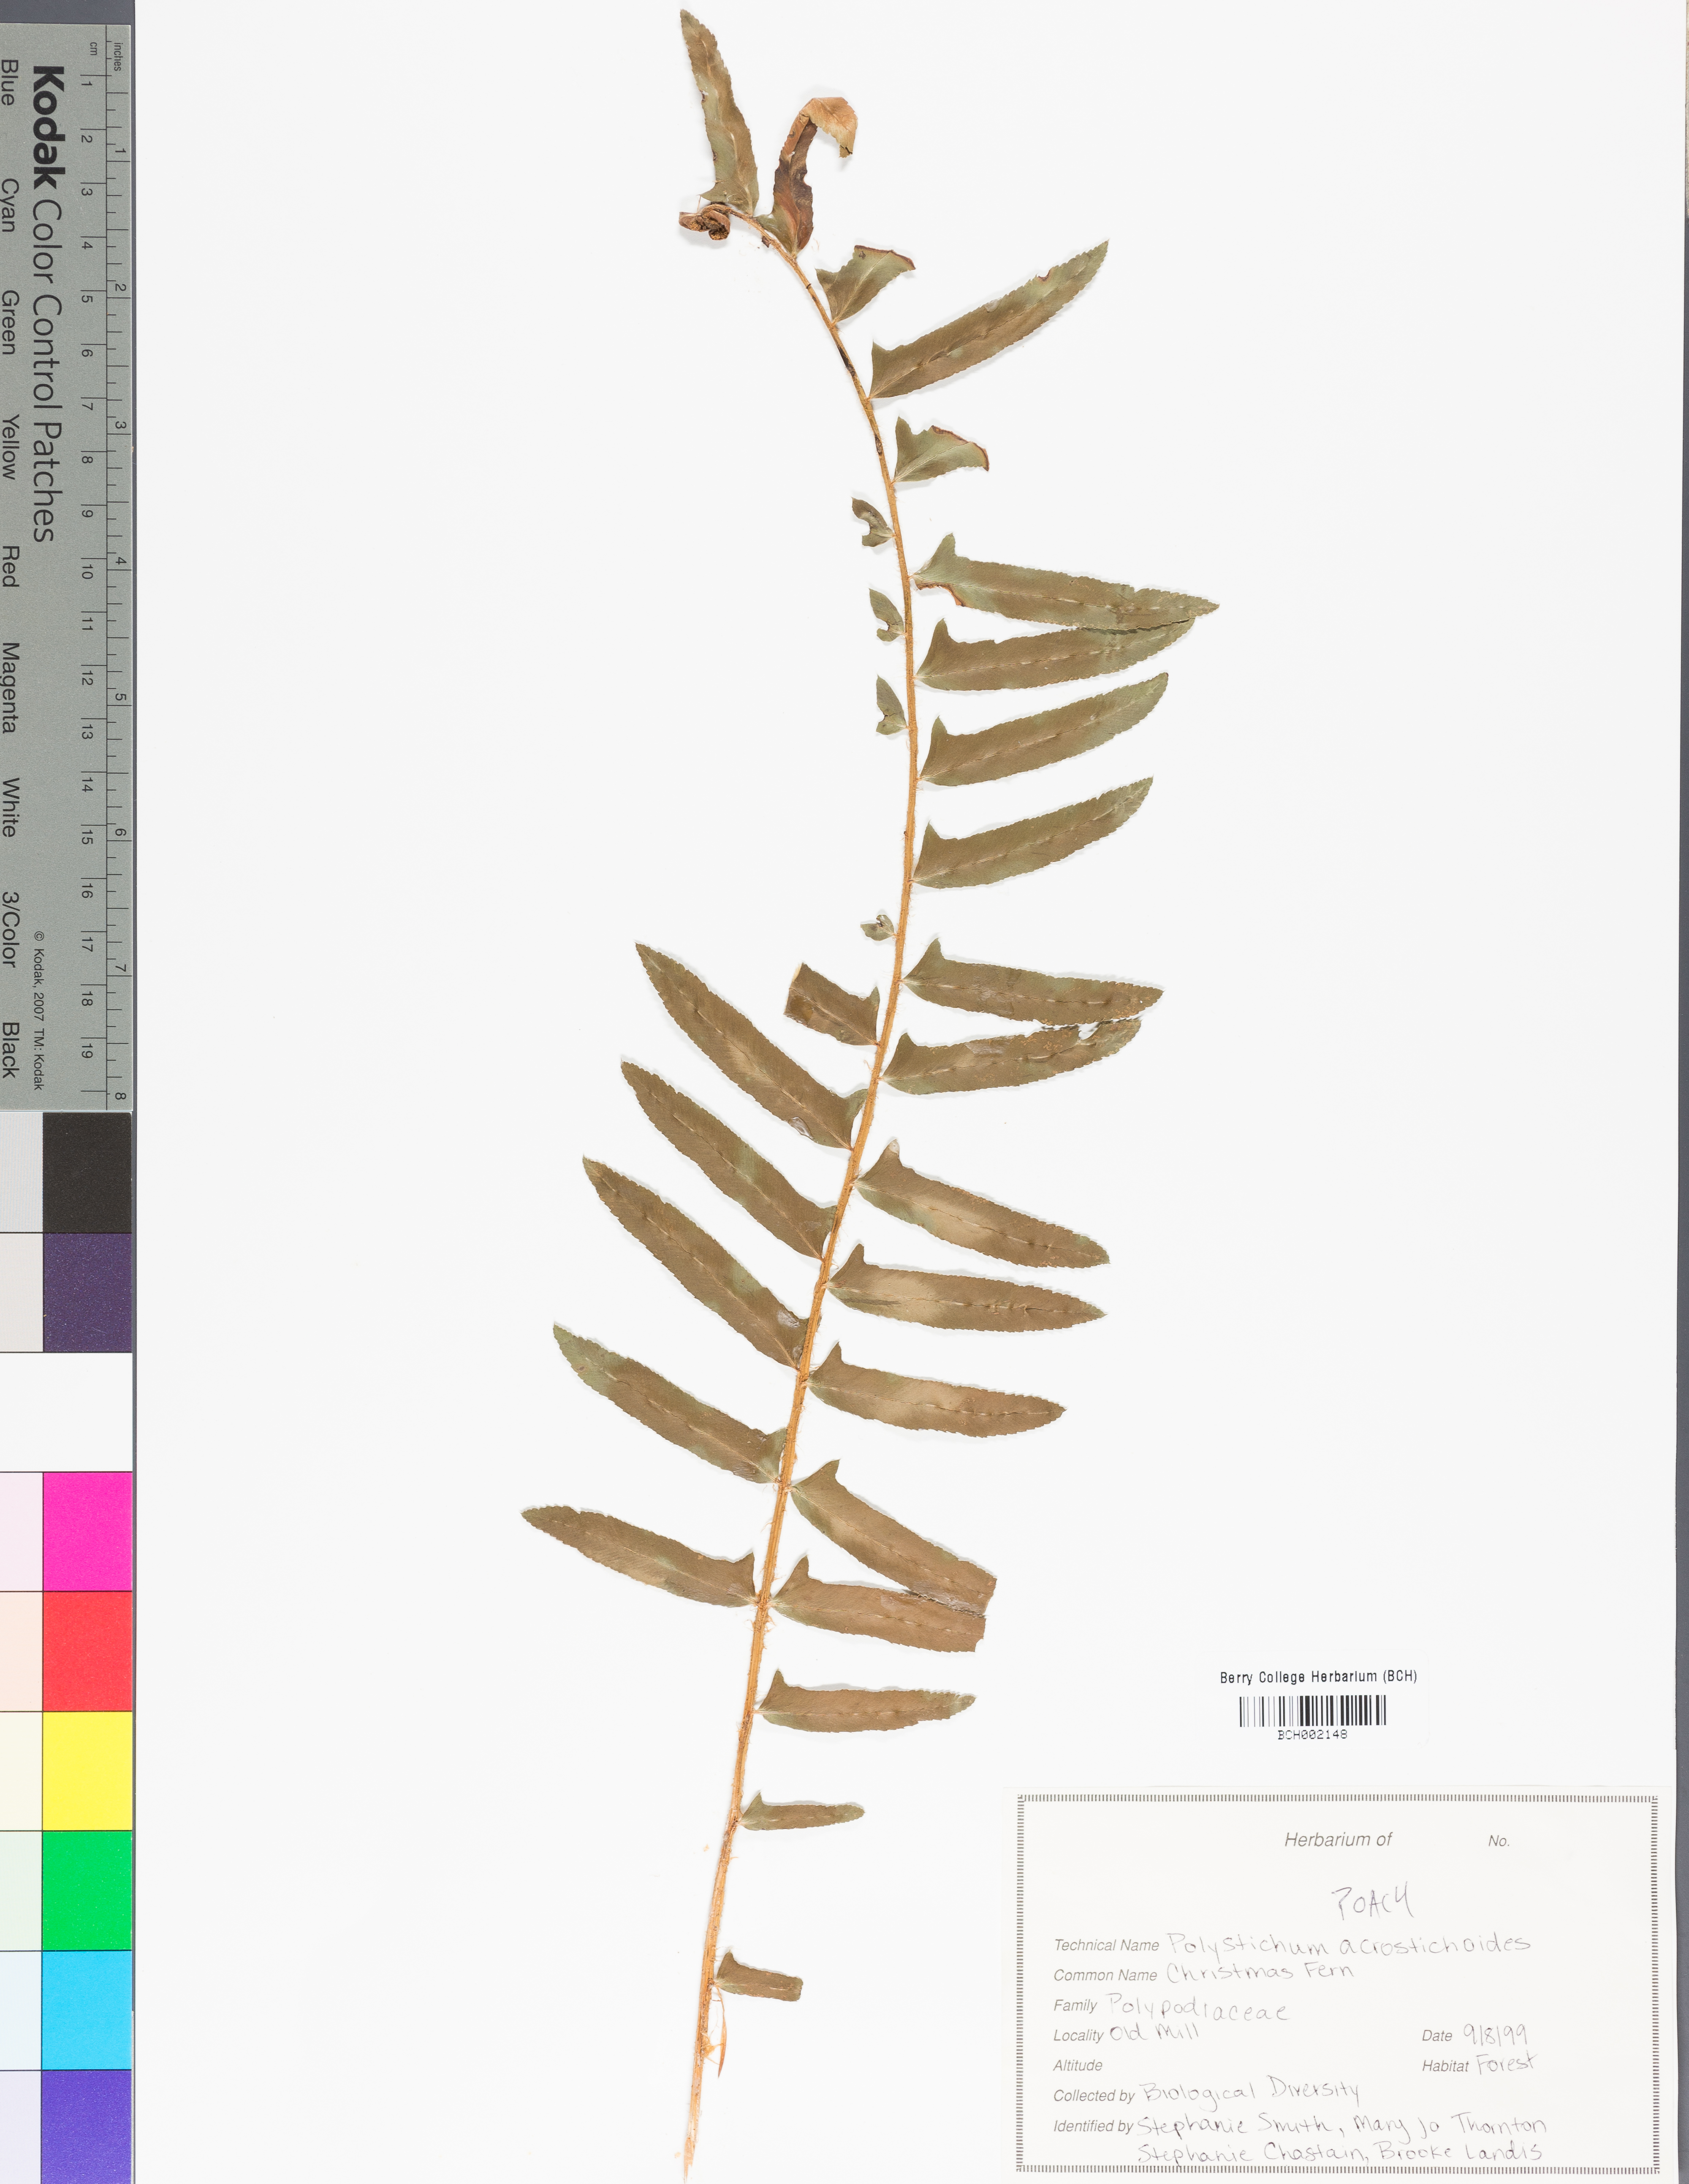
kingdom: Plantae
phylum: Tracheophyta
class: Polypodiopsida
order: Polypodiales
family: Polypodiaceae
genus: Pleopeltis
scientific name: Pleopeltis polypodioides
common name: Resurrection fern
